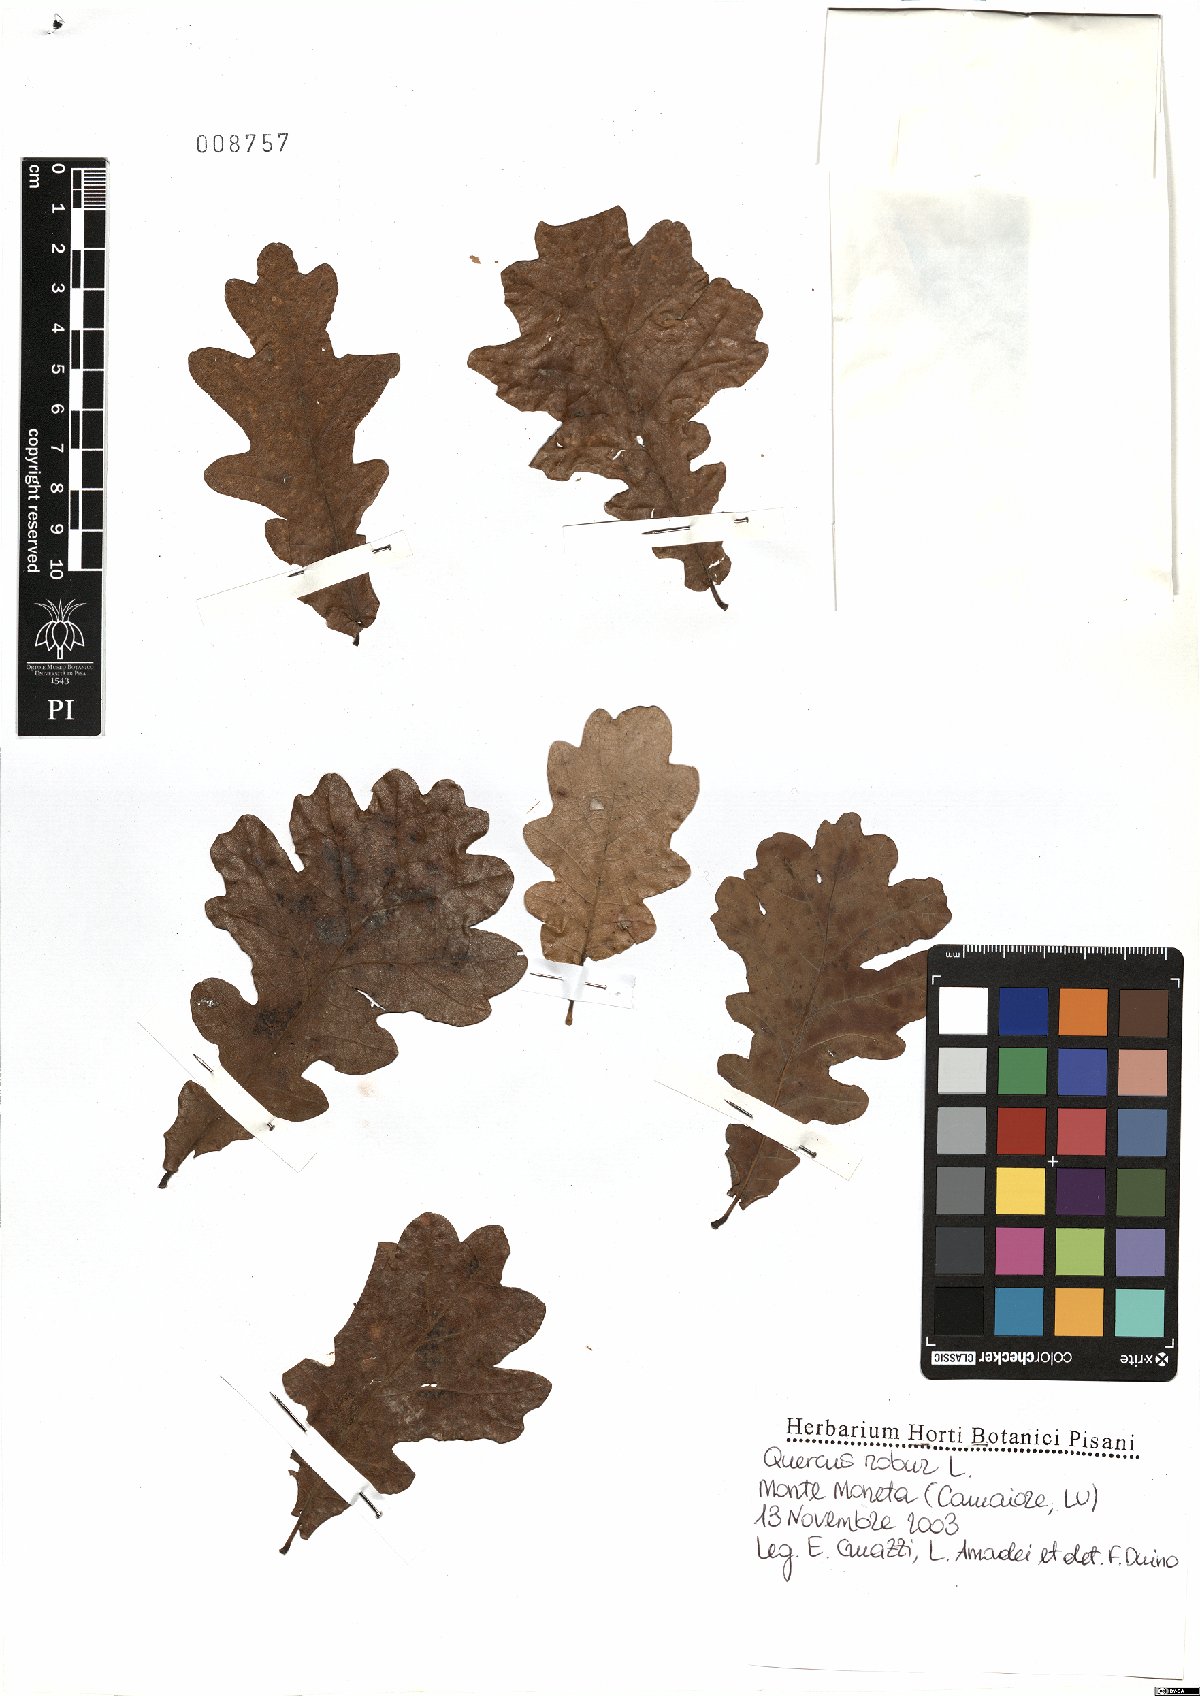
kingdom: Plantae
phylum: Tracheophyta
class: Magnoliopsida
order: Fagales
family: Fagaceae
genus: Quercus
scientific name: Quercus robur
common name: Pedunculate oak
